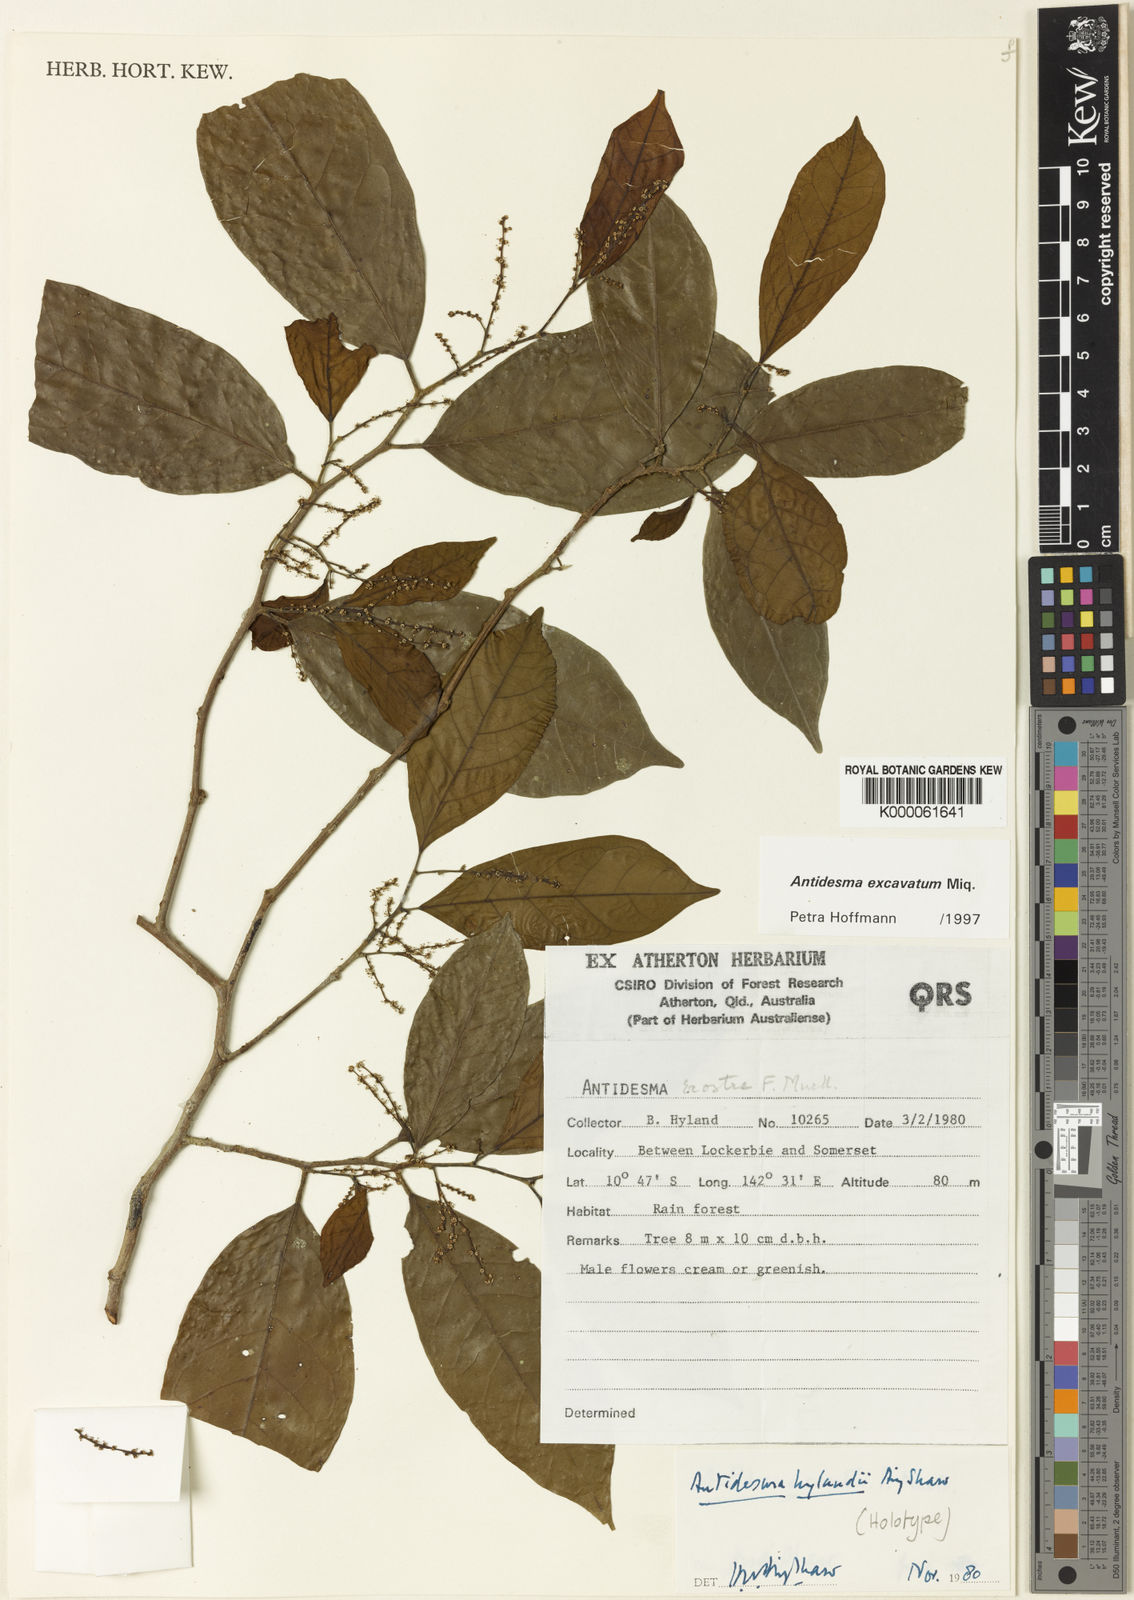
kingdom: Plantae
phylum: Tracheophyta
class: Magnoliopsida
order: Malpighiales
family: Phyllanthaceae
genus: Antidesma
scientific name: Antidesma excavatum
